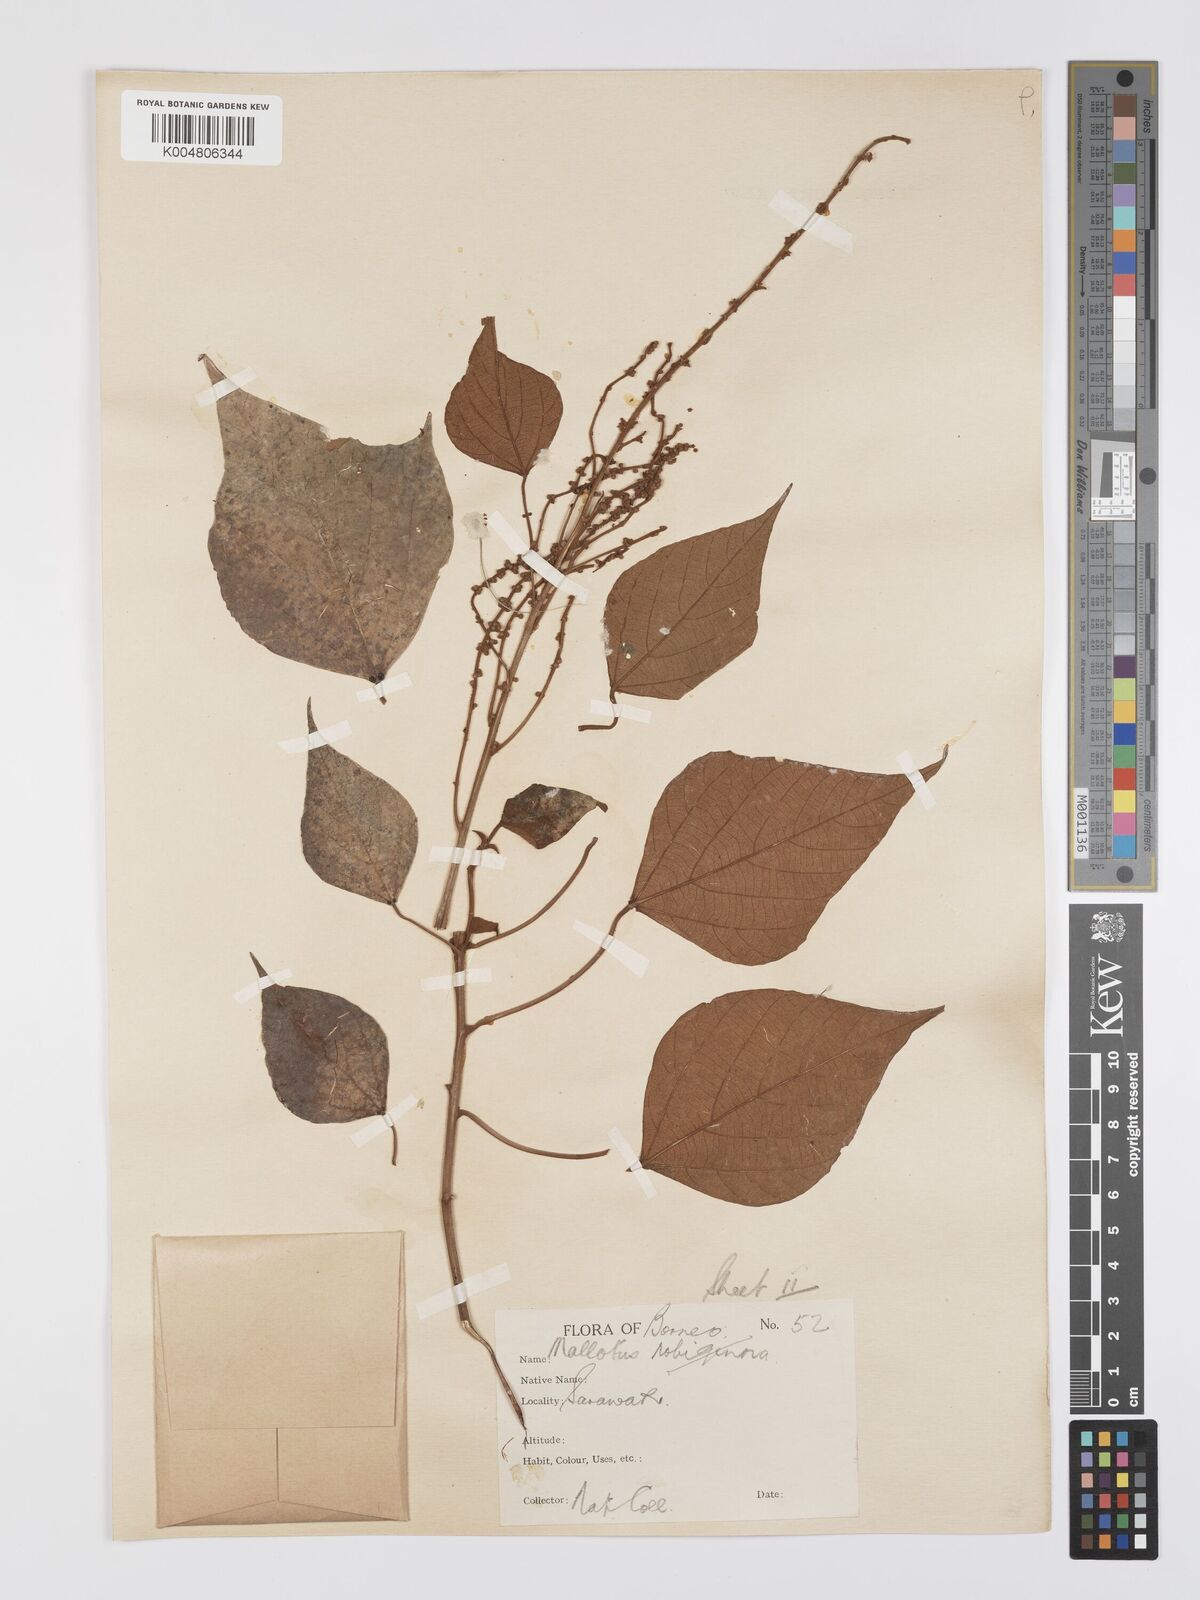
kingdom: Plantae
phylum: Tracheophyta
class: Magnoliopsida
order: Malpighiales
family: Euphorbiaceae
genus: Mallotus
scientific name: Mallotus paniculatus
